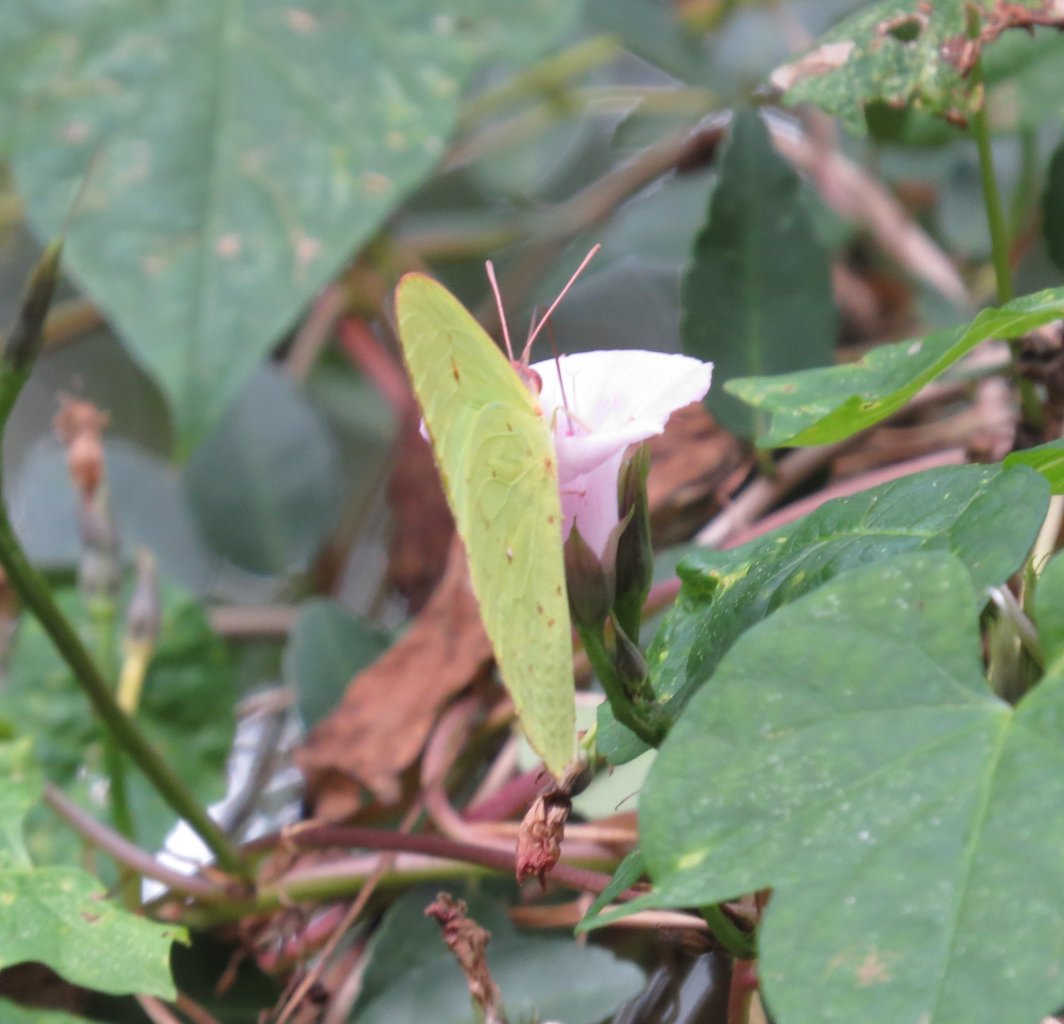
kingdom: Animalia
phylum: Arthropoda
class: Insecta
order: Lepidoptera
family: Pieridae
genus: Phoebis
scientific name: Phoebis sennae
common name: Cloudless Sulphur
